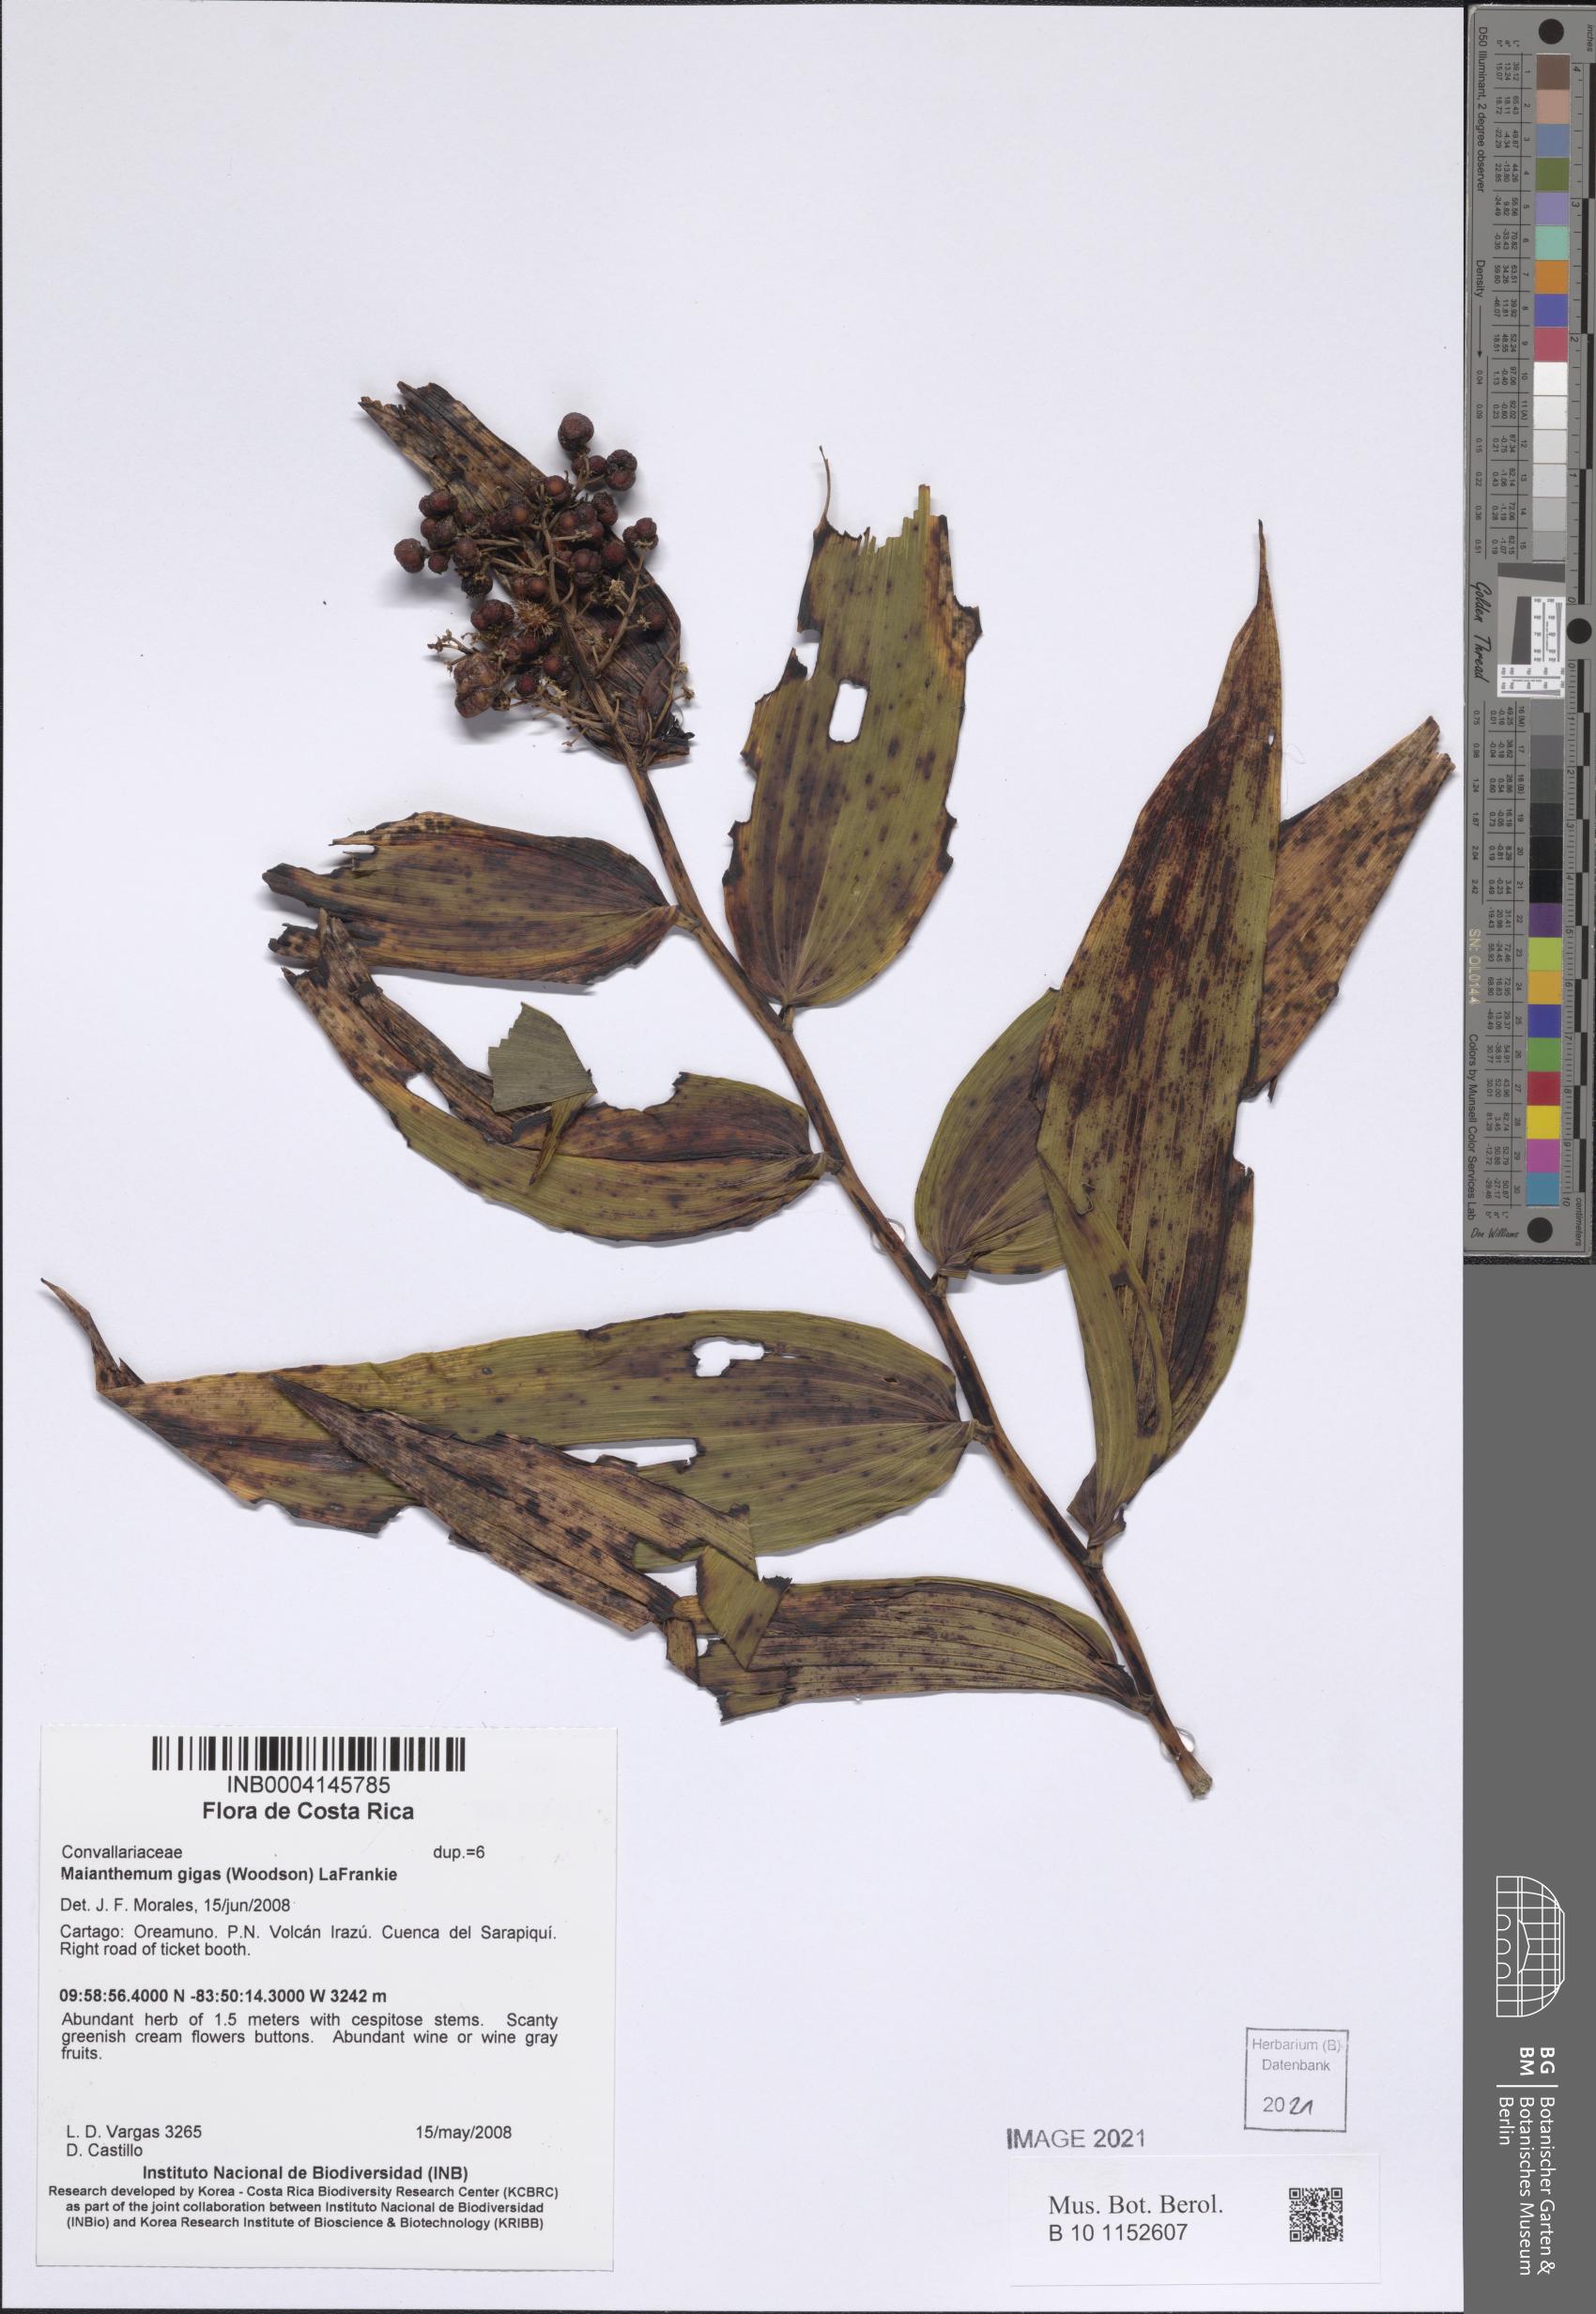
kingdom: Plantae
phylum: Tracheophyta
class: Liliopsida
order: Asparagales
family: Asparagaceae
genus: Maianthemum
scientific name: Maianthemum gigas
